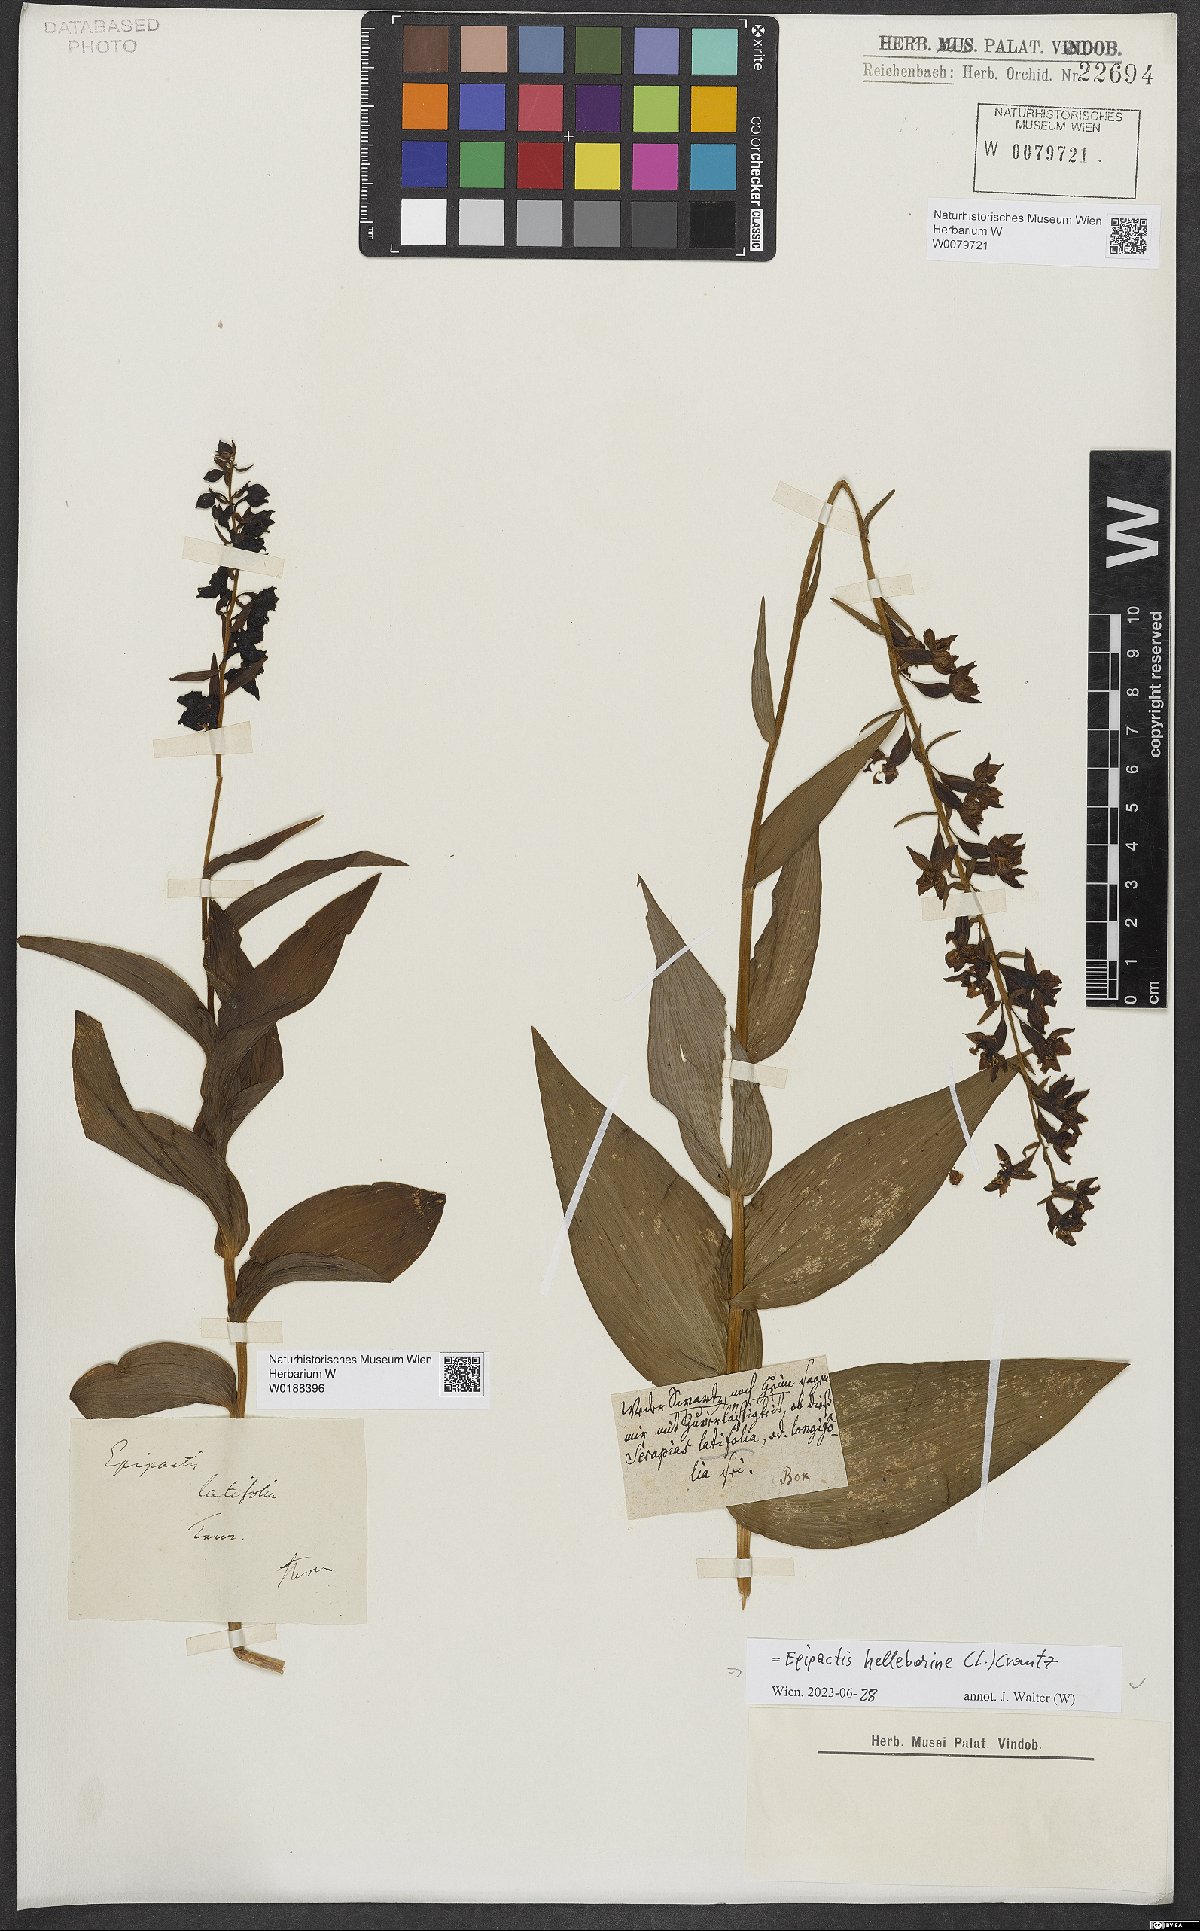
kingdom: Plantae
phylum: Tracheophyta
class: Liliopsida
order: Asparagales
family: Orchidaceae
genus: Epipactis
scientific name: Epipactis helleborine
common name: Broad-leaved helleborine
